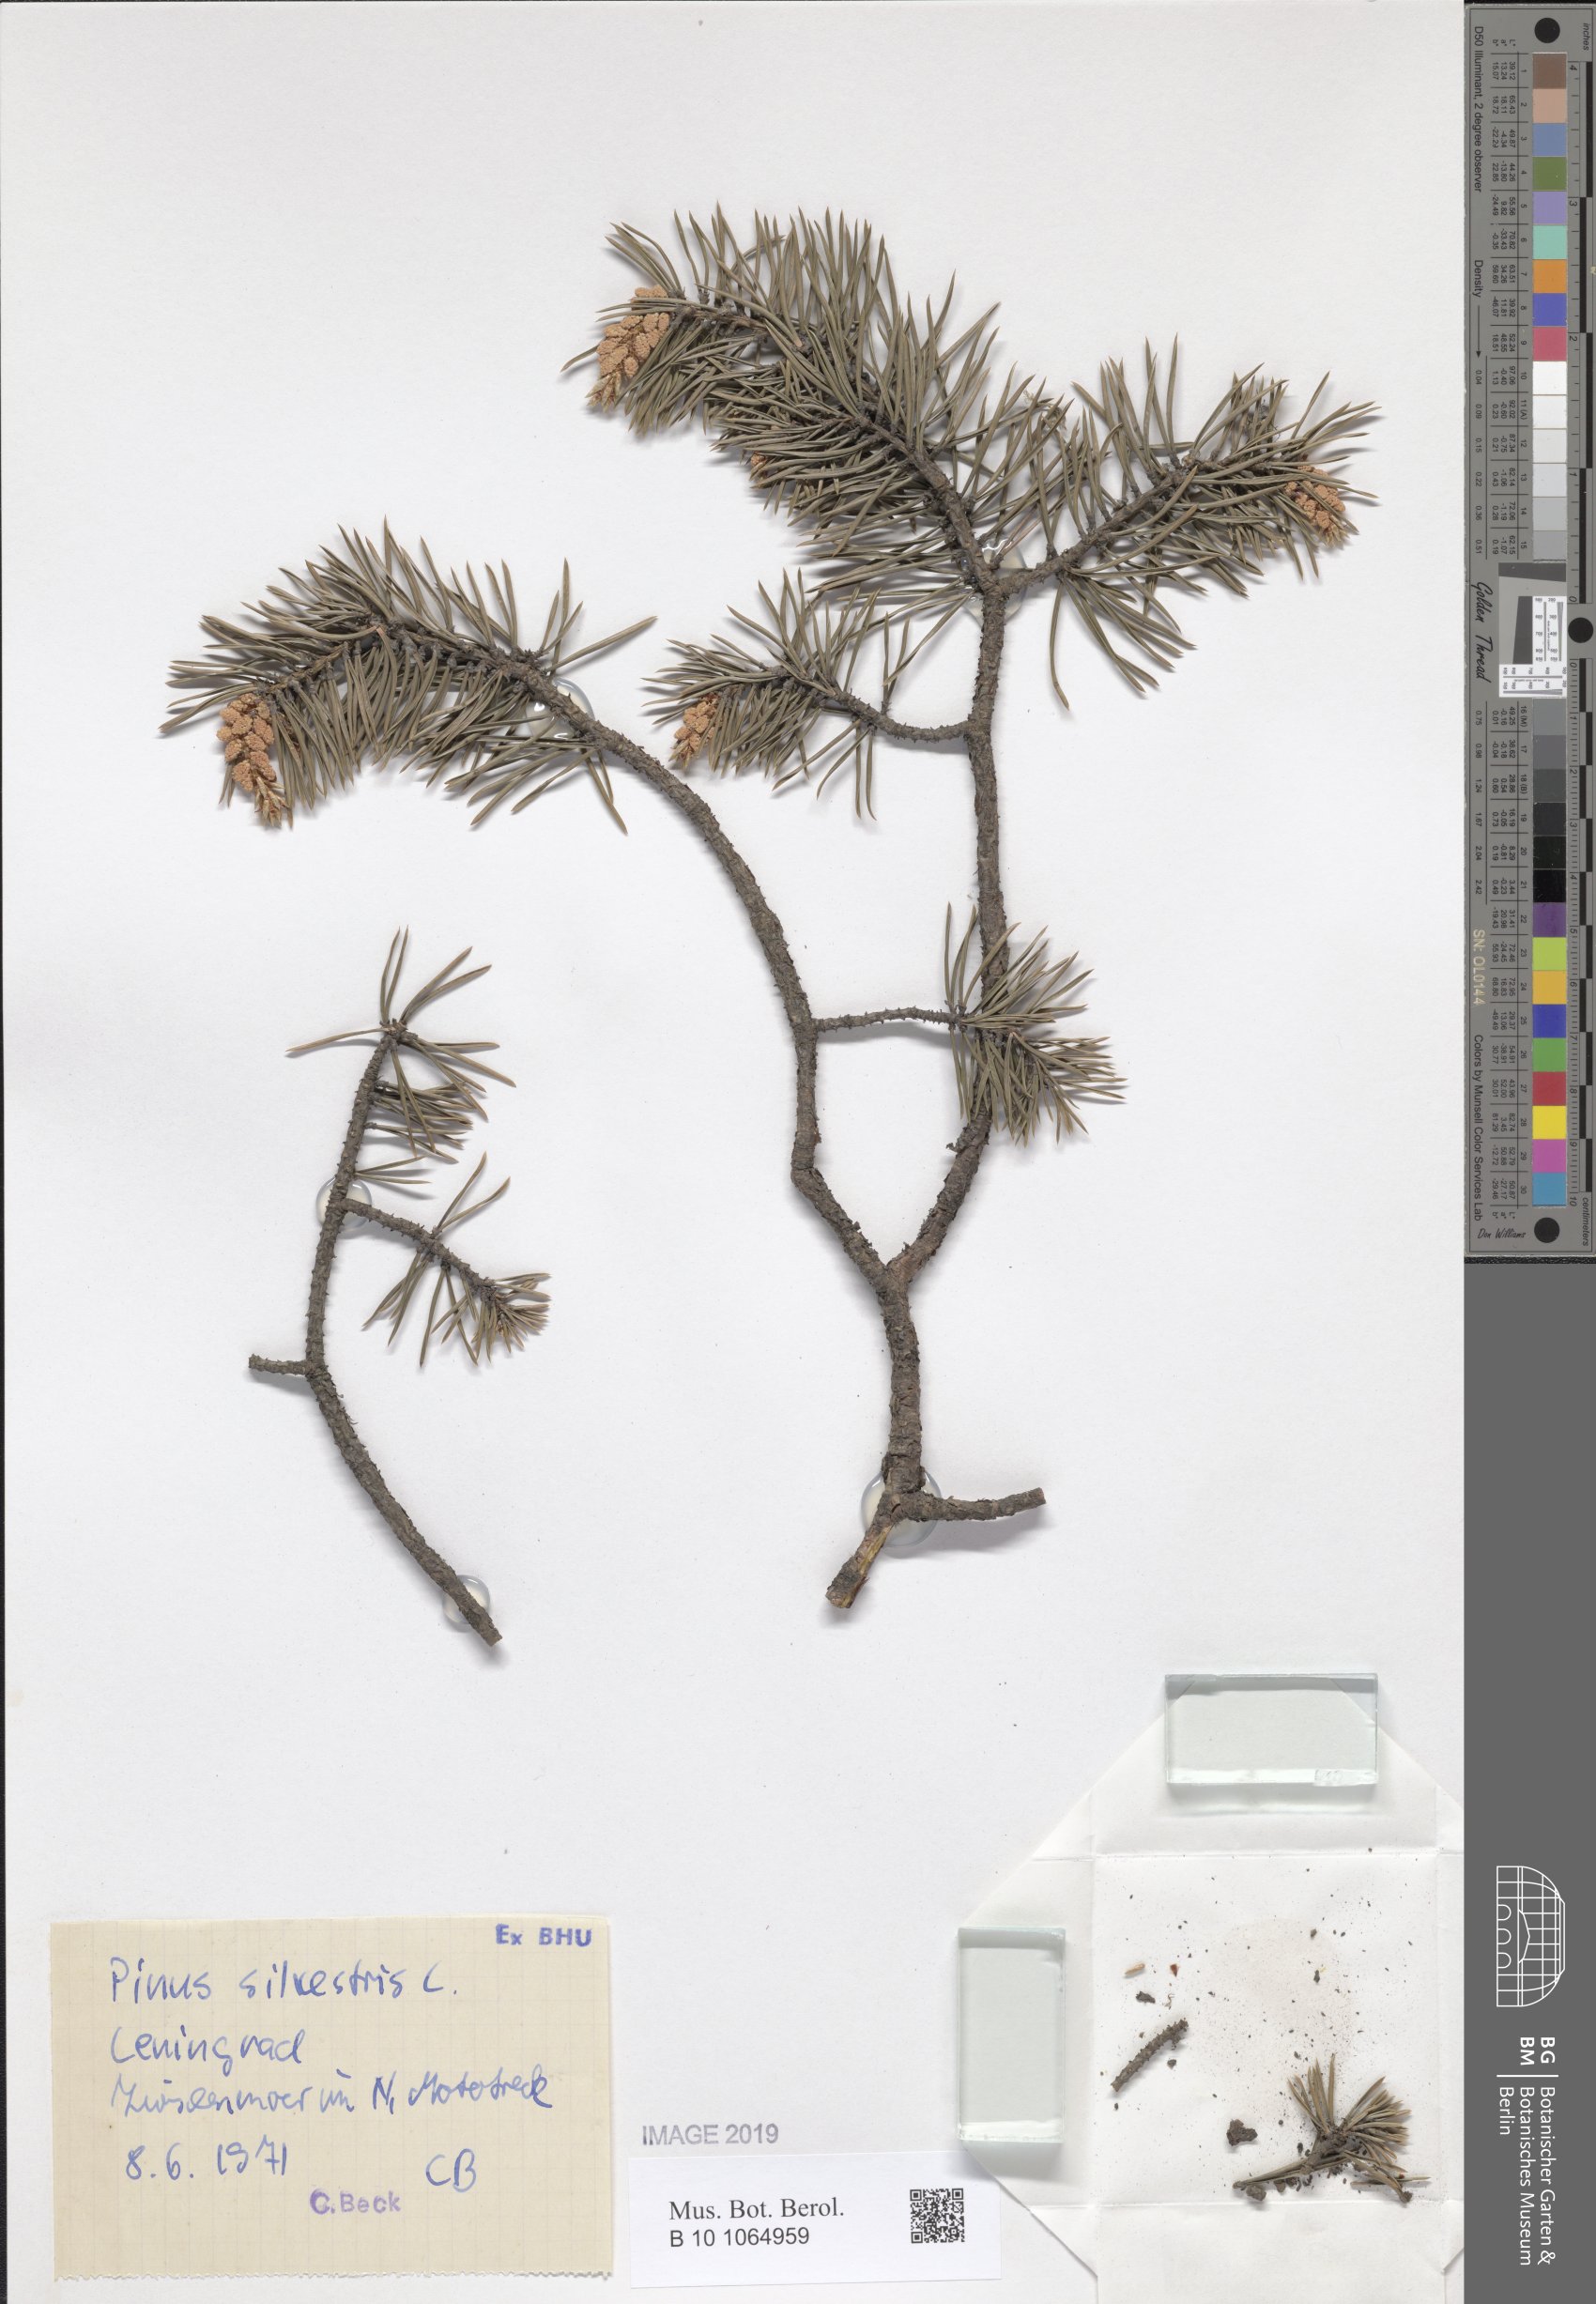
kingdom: Plantae
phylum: Tracheophyta
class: Pinopsida
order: Pinales
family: Pinaceae
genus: Pinus
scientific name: Pinus sylvestris
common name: Scots pine
